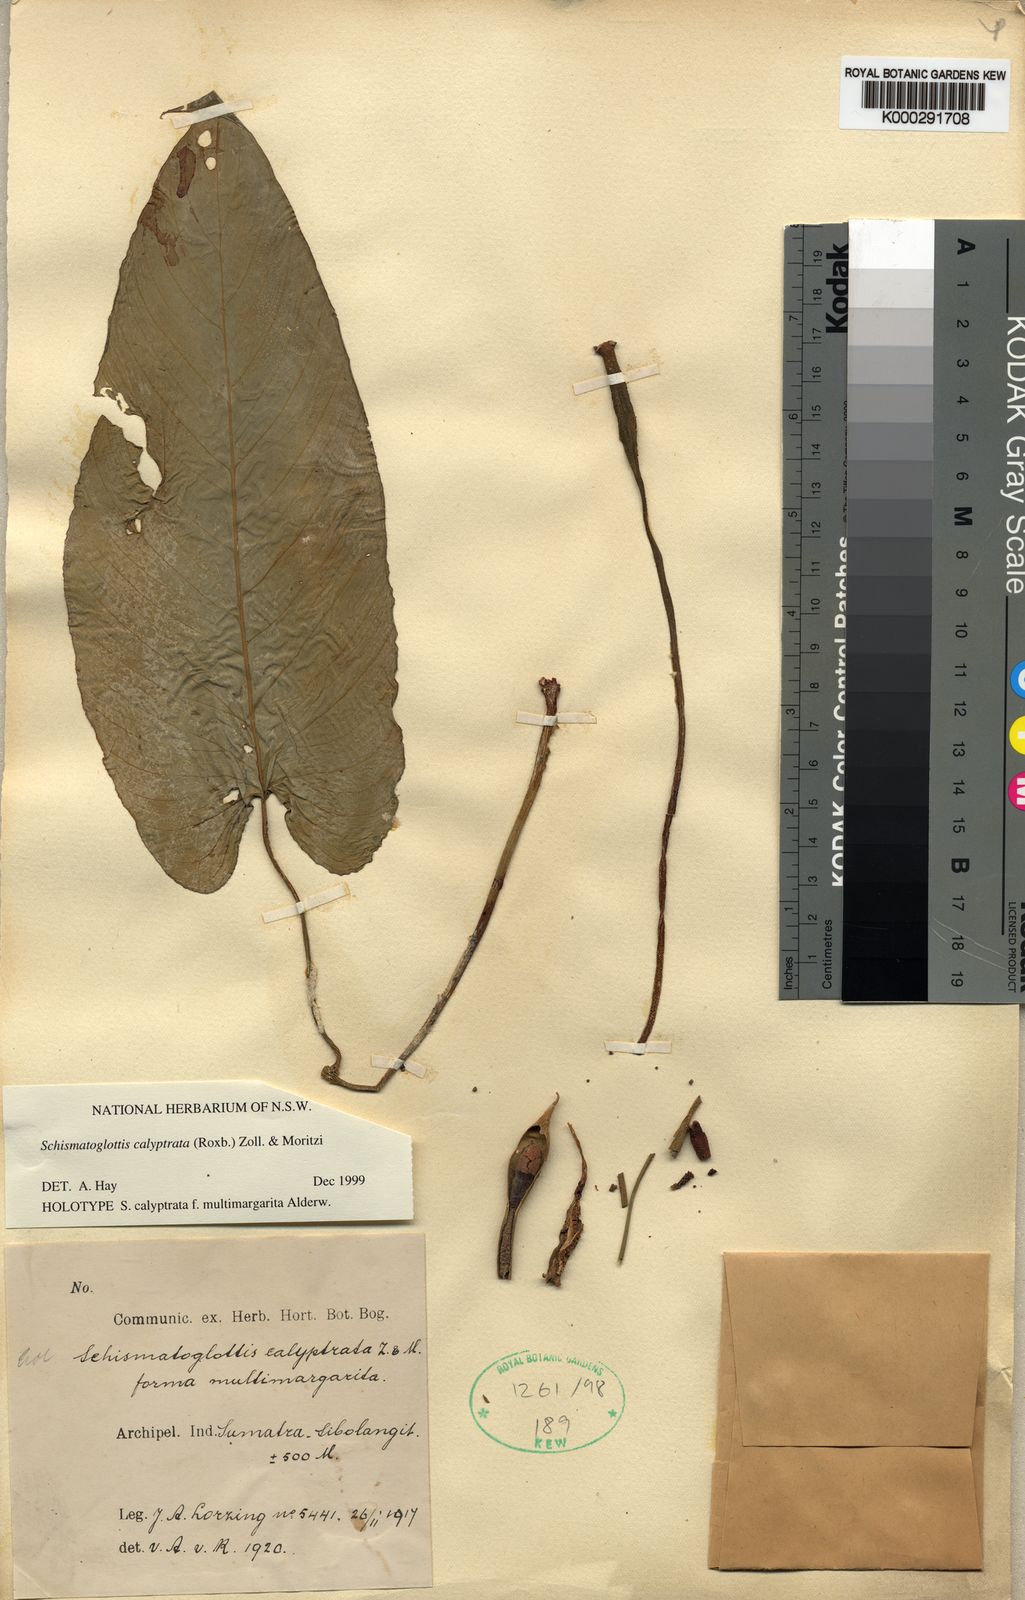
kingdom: Plantae
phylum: Tracheophyta
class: Liliopsida
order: Alismatales
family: Araceae
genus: Schismatoglottis
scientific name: Schismatoglottis calyptrata
